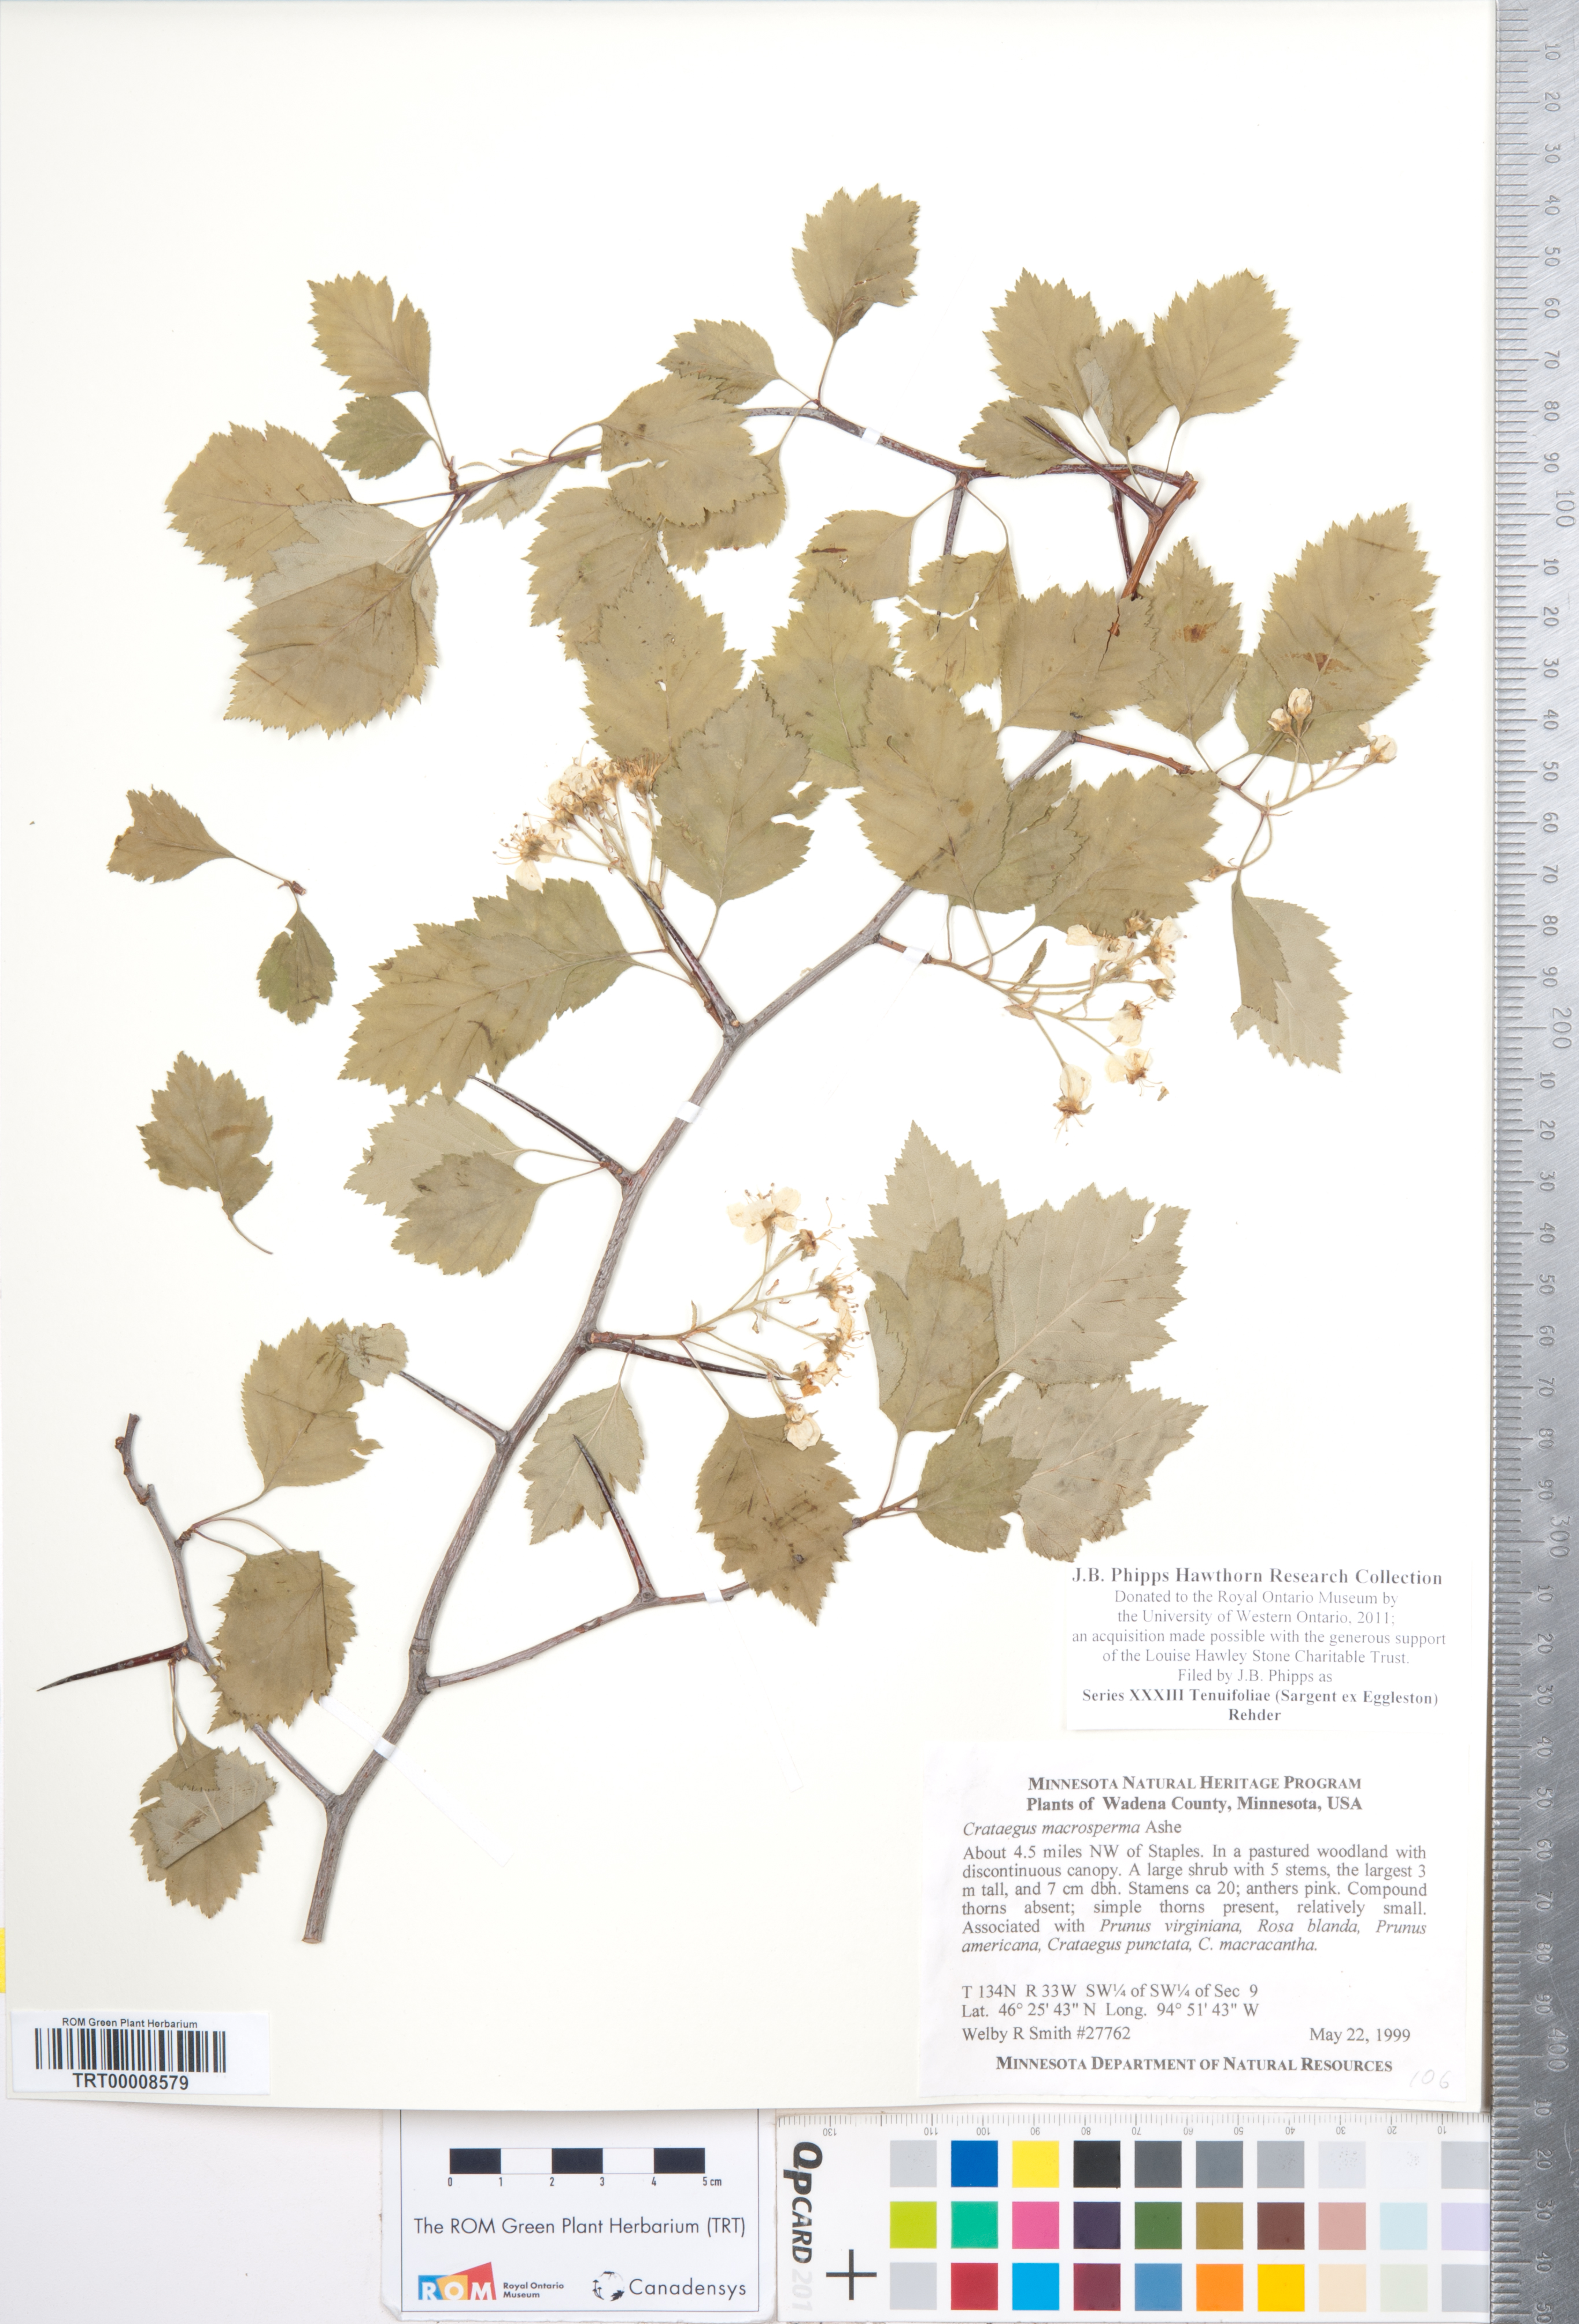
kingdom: Plantae
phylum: Tracheophyta
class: Magnoliopsida
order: Rosales
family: Rosaceae
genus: Crataegus
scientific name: Crataegus
